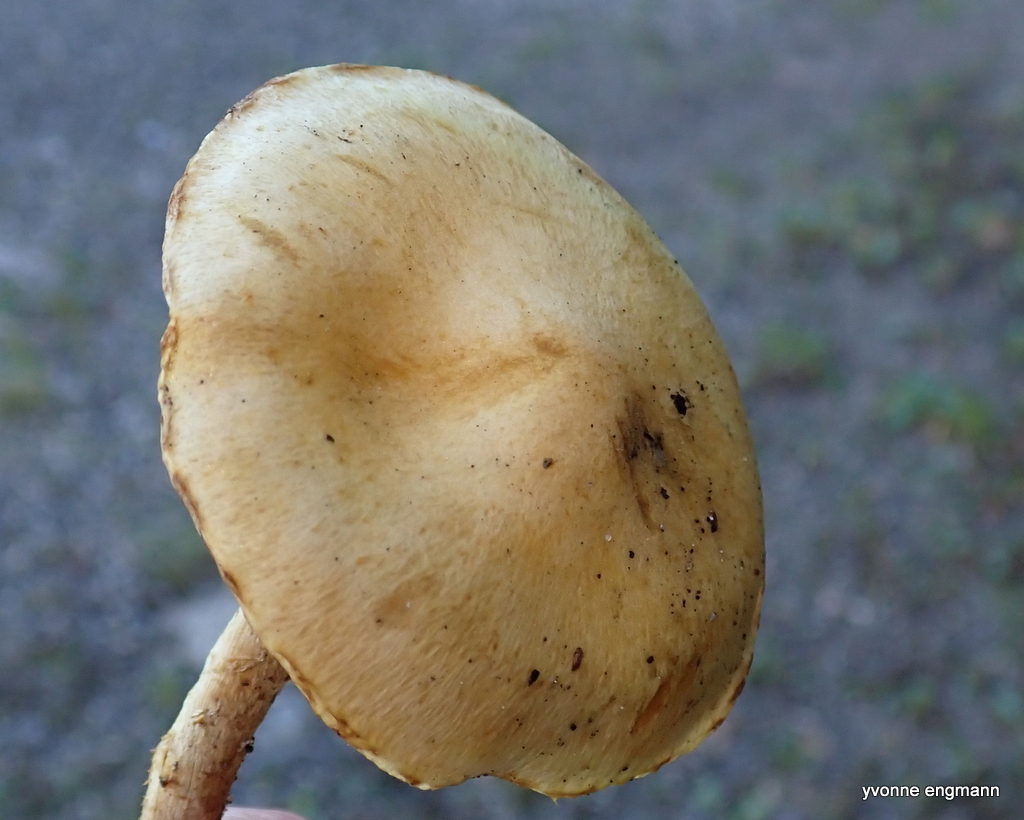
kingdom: Fungi
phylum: Basidiomycota
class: Agaricomycetes
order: Agaricales
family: Strophariaceae
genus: Pholiota
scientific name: Pholiota gummosa
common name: grøngul skælhat
